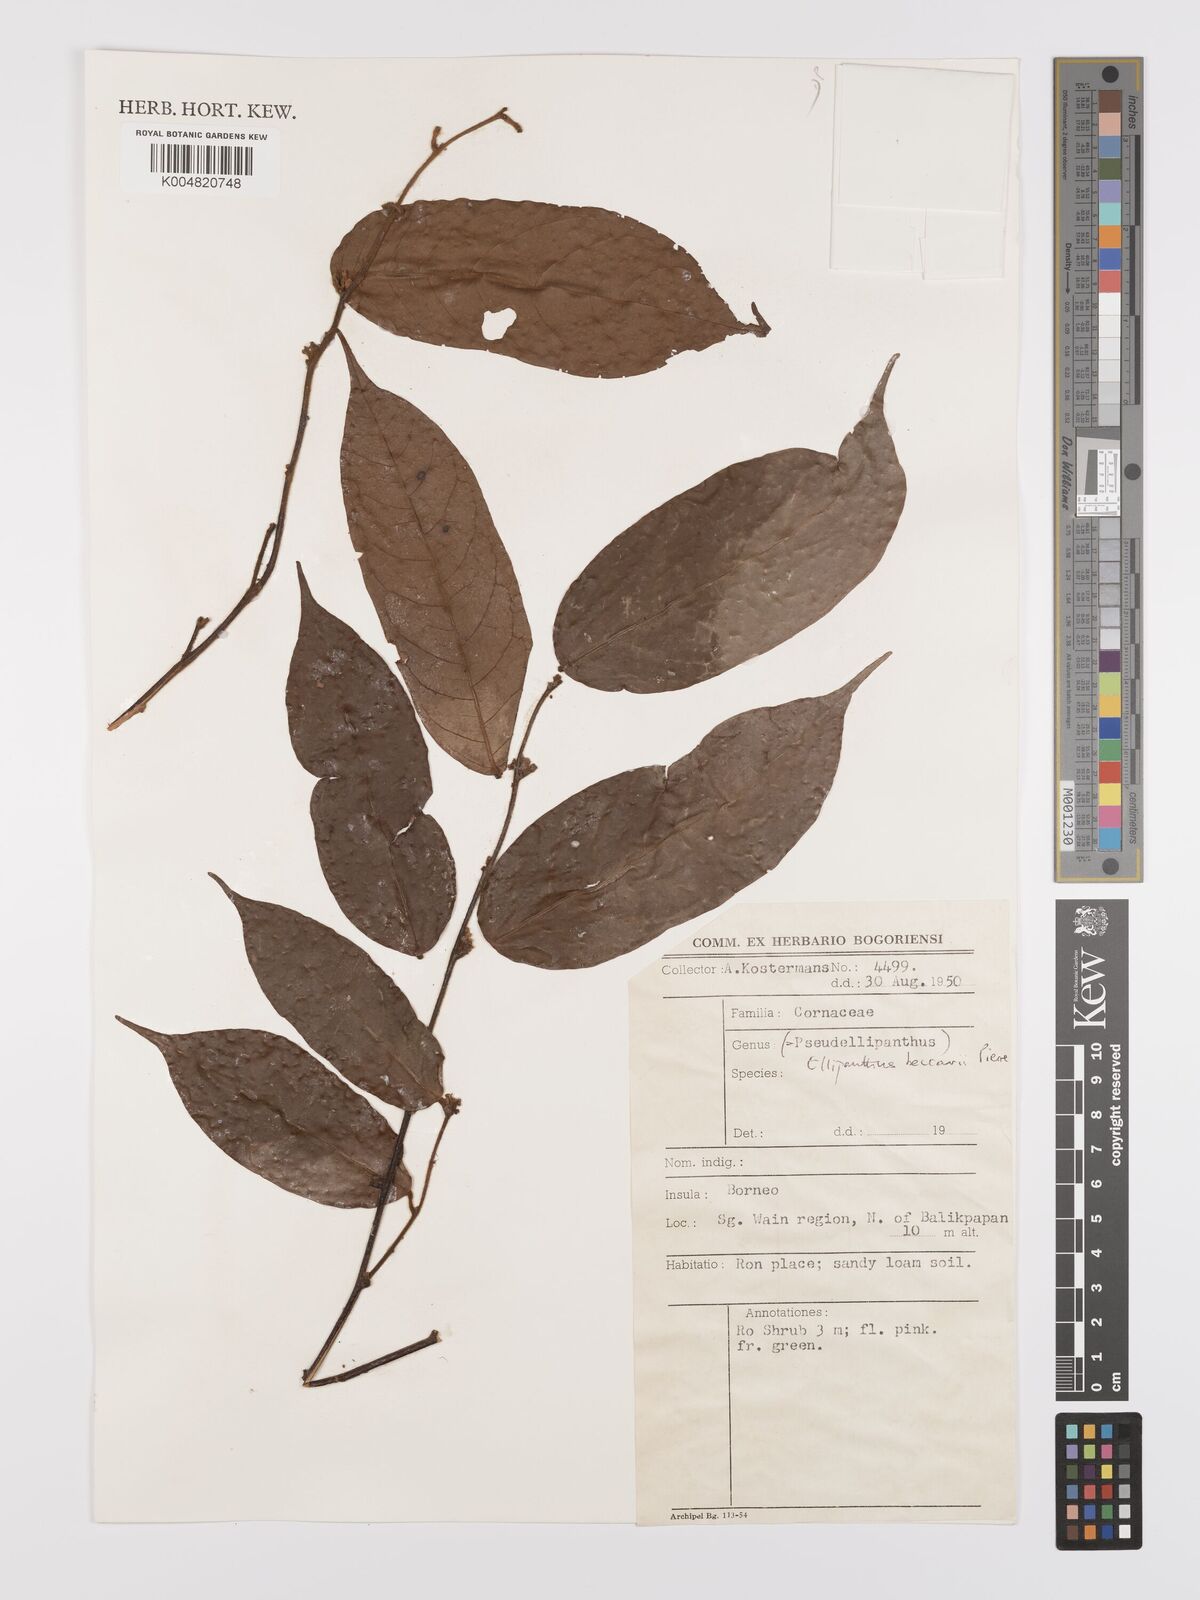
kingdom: Plantae
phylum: Tracheophyta
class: Magnoliopsida
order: Oxalidales
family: Connaraceae
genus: Ellipanthus
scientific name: Ellipanthus beccarii
